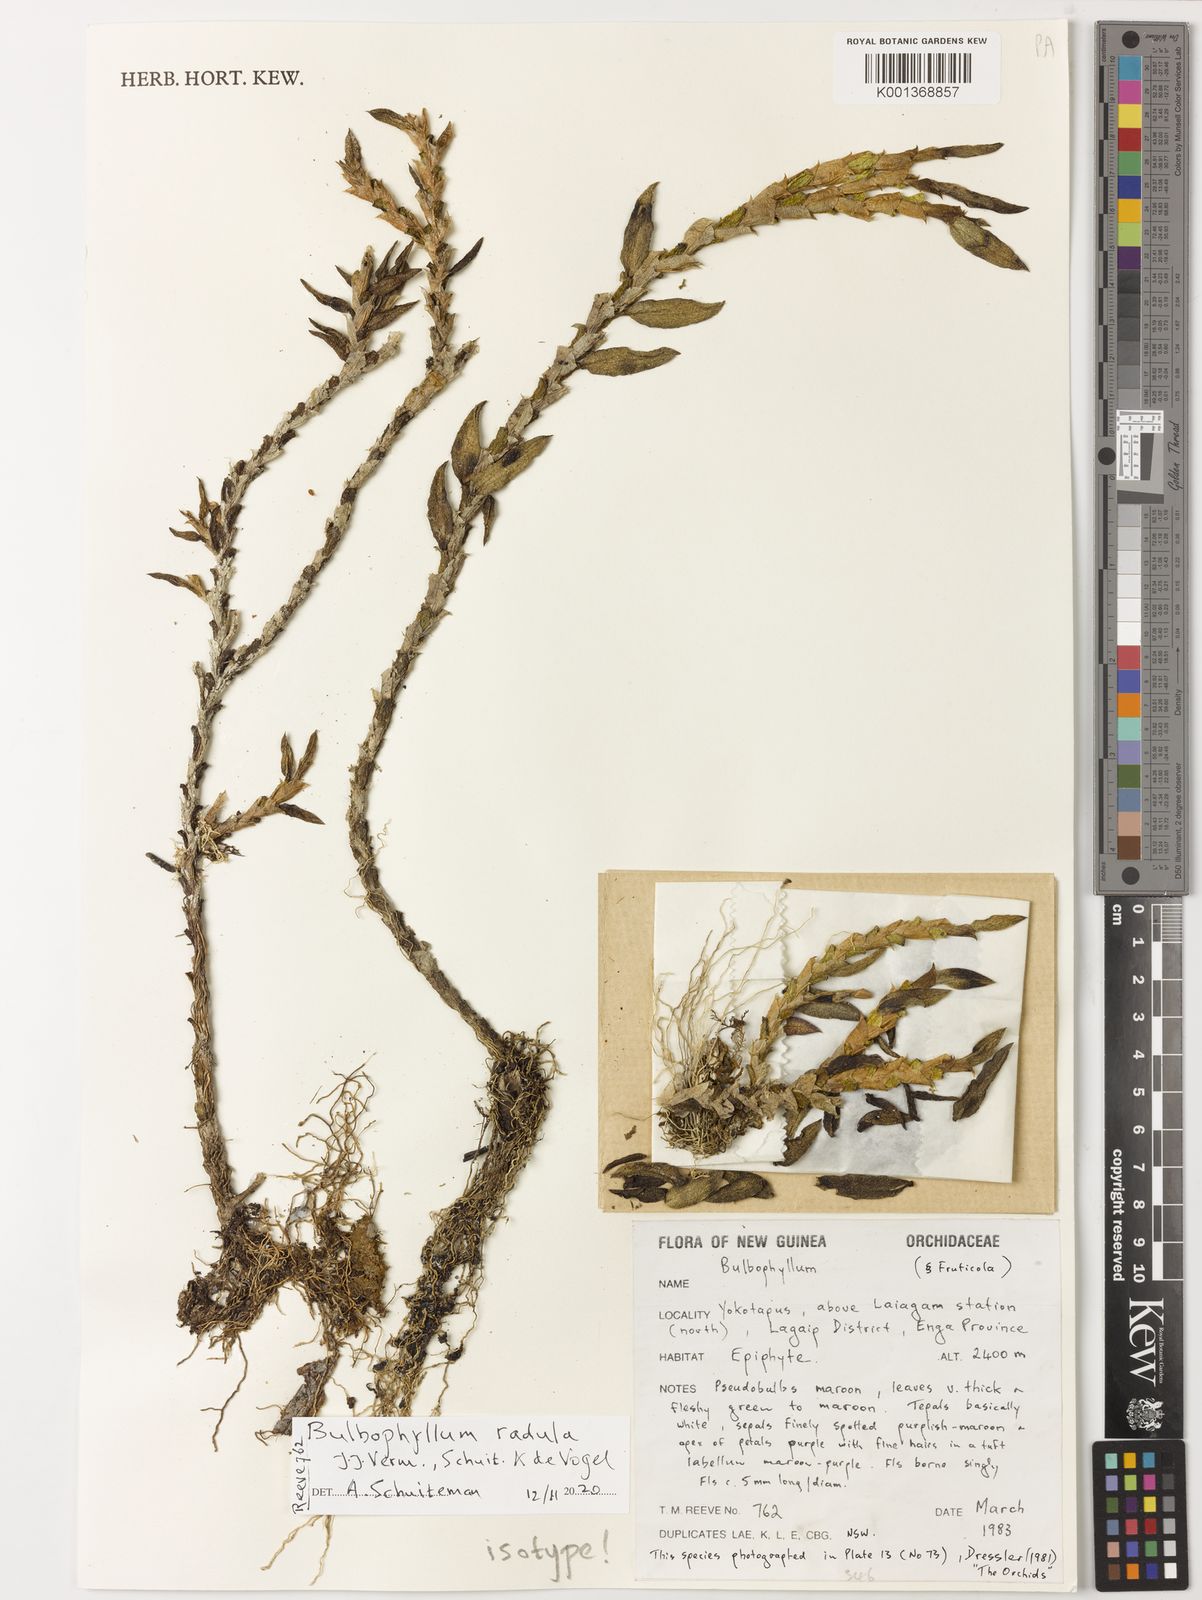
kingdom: Plantae
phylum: Tracheophyta
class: Liliopsida
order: Asparagales
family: Orchidaceae
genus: Bulbophyllum
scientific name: Bulbophyllum
